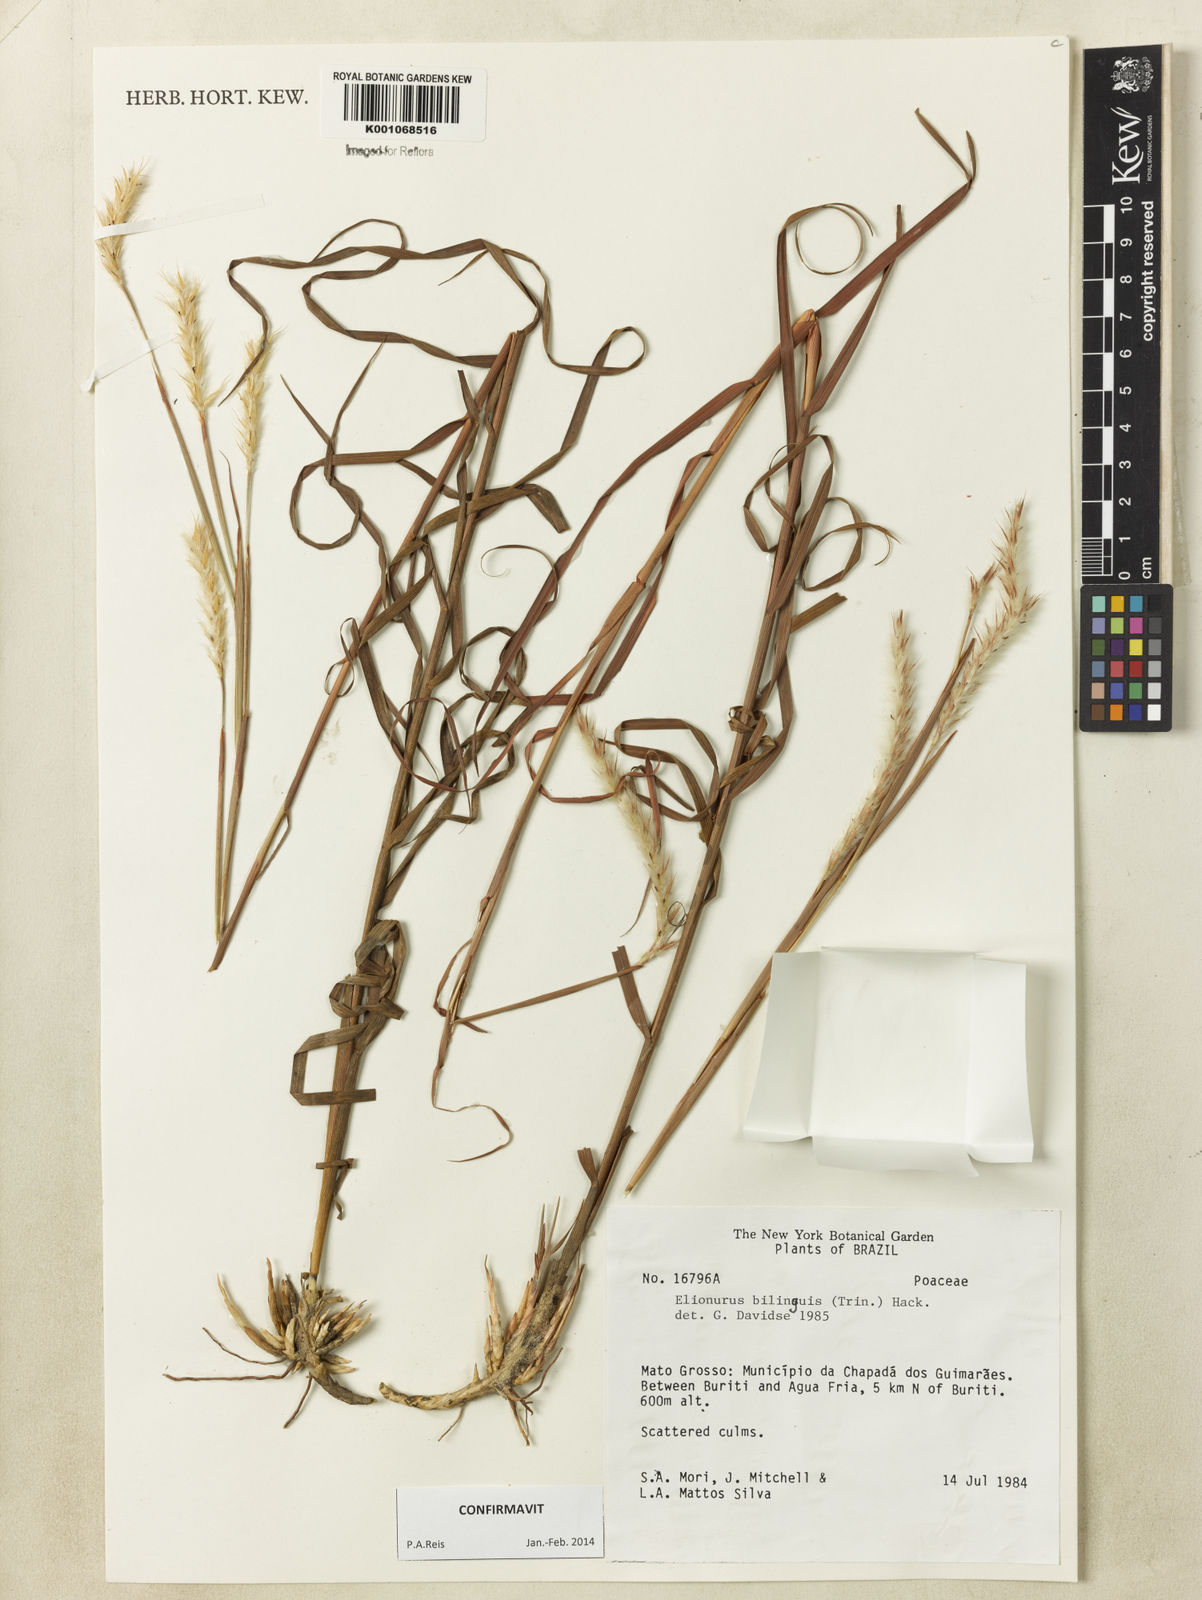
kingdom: Plantae
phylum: Tracheophyta
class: Liliopsida
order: Poales
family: Poaceae
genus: Elionurus
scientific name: Elionurus bilinguis
